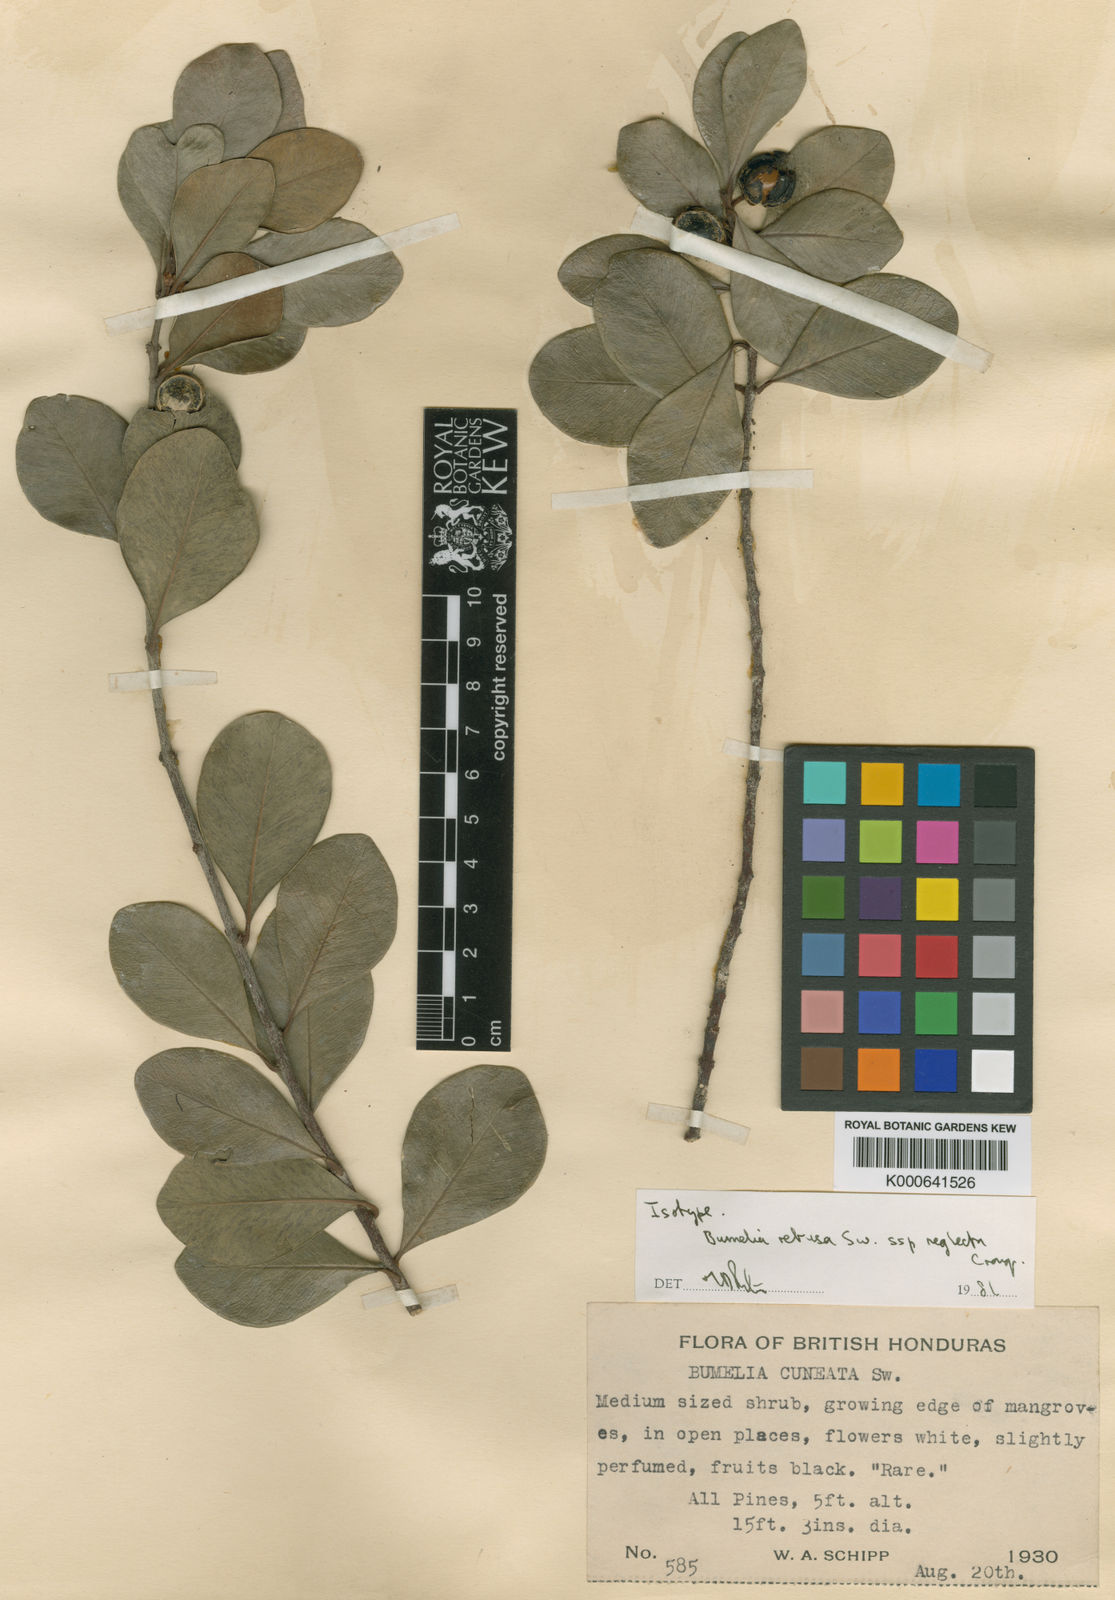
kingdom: Plantae
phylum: Tracheophyta
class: Magnoliopsida
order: Ericales
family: Sapotaceae
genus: Sideroxylon
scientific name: Sideroxylon americanum
